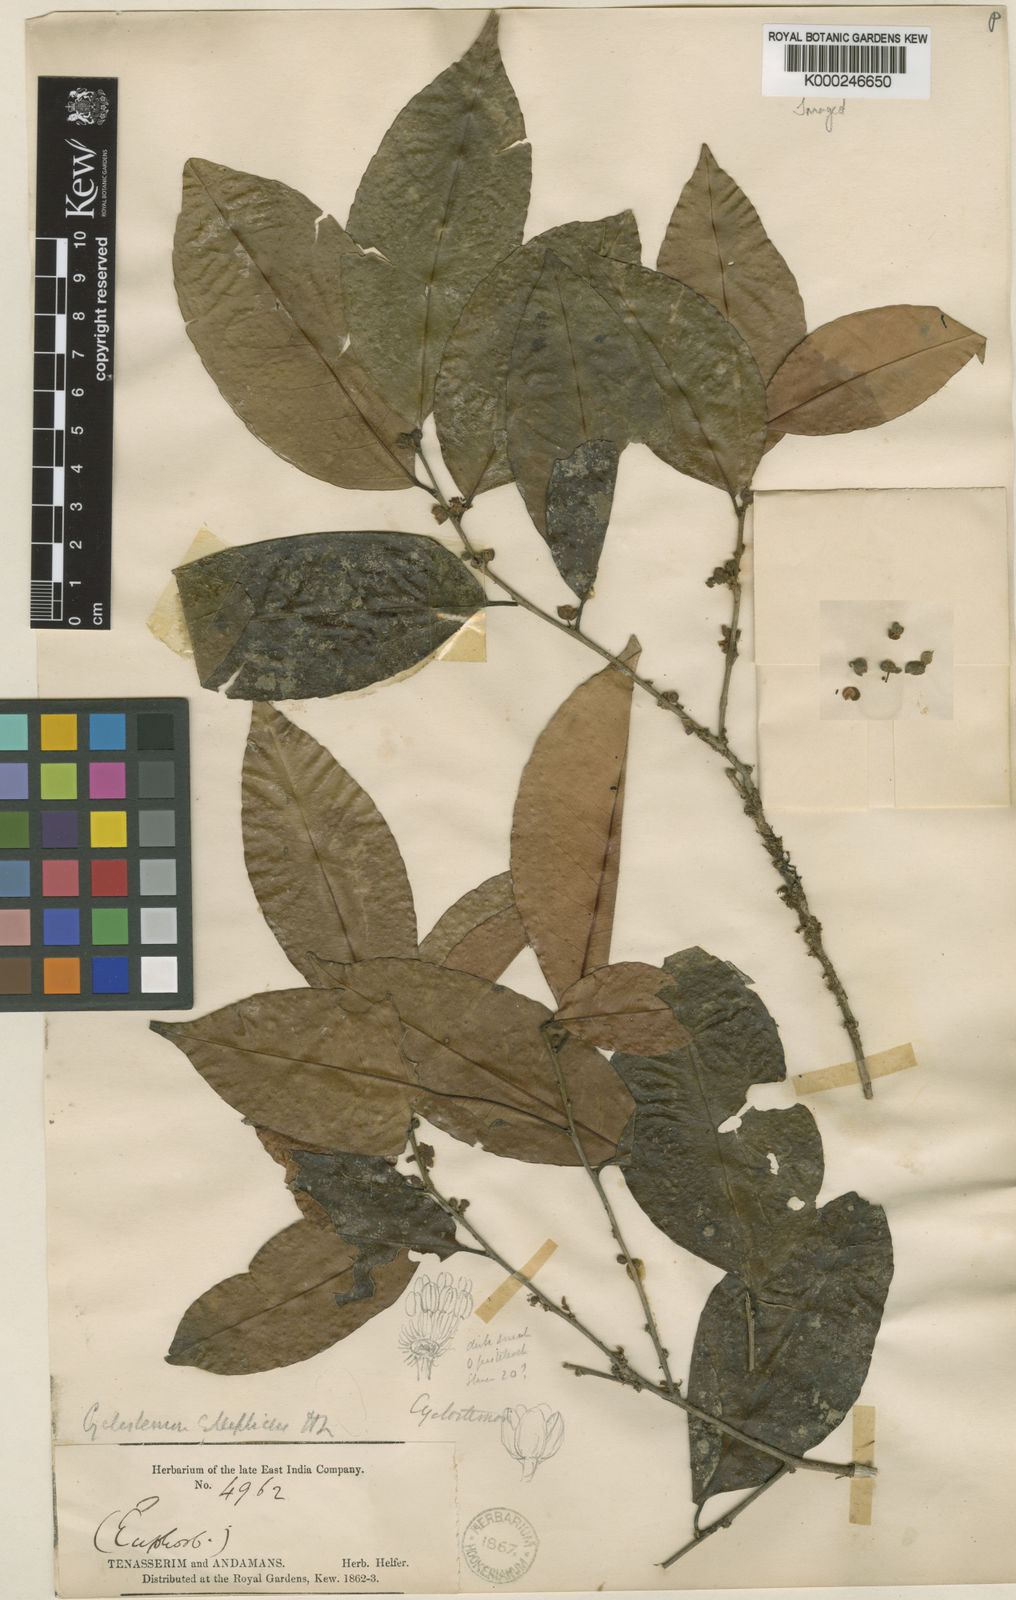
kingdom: Plantae
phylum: Tracheophyta
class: Magnoliopsida
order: Malpighiales
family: Putranjivaceae
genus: Drypetes
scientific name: Drypetes elliptica
